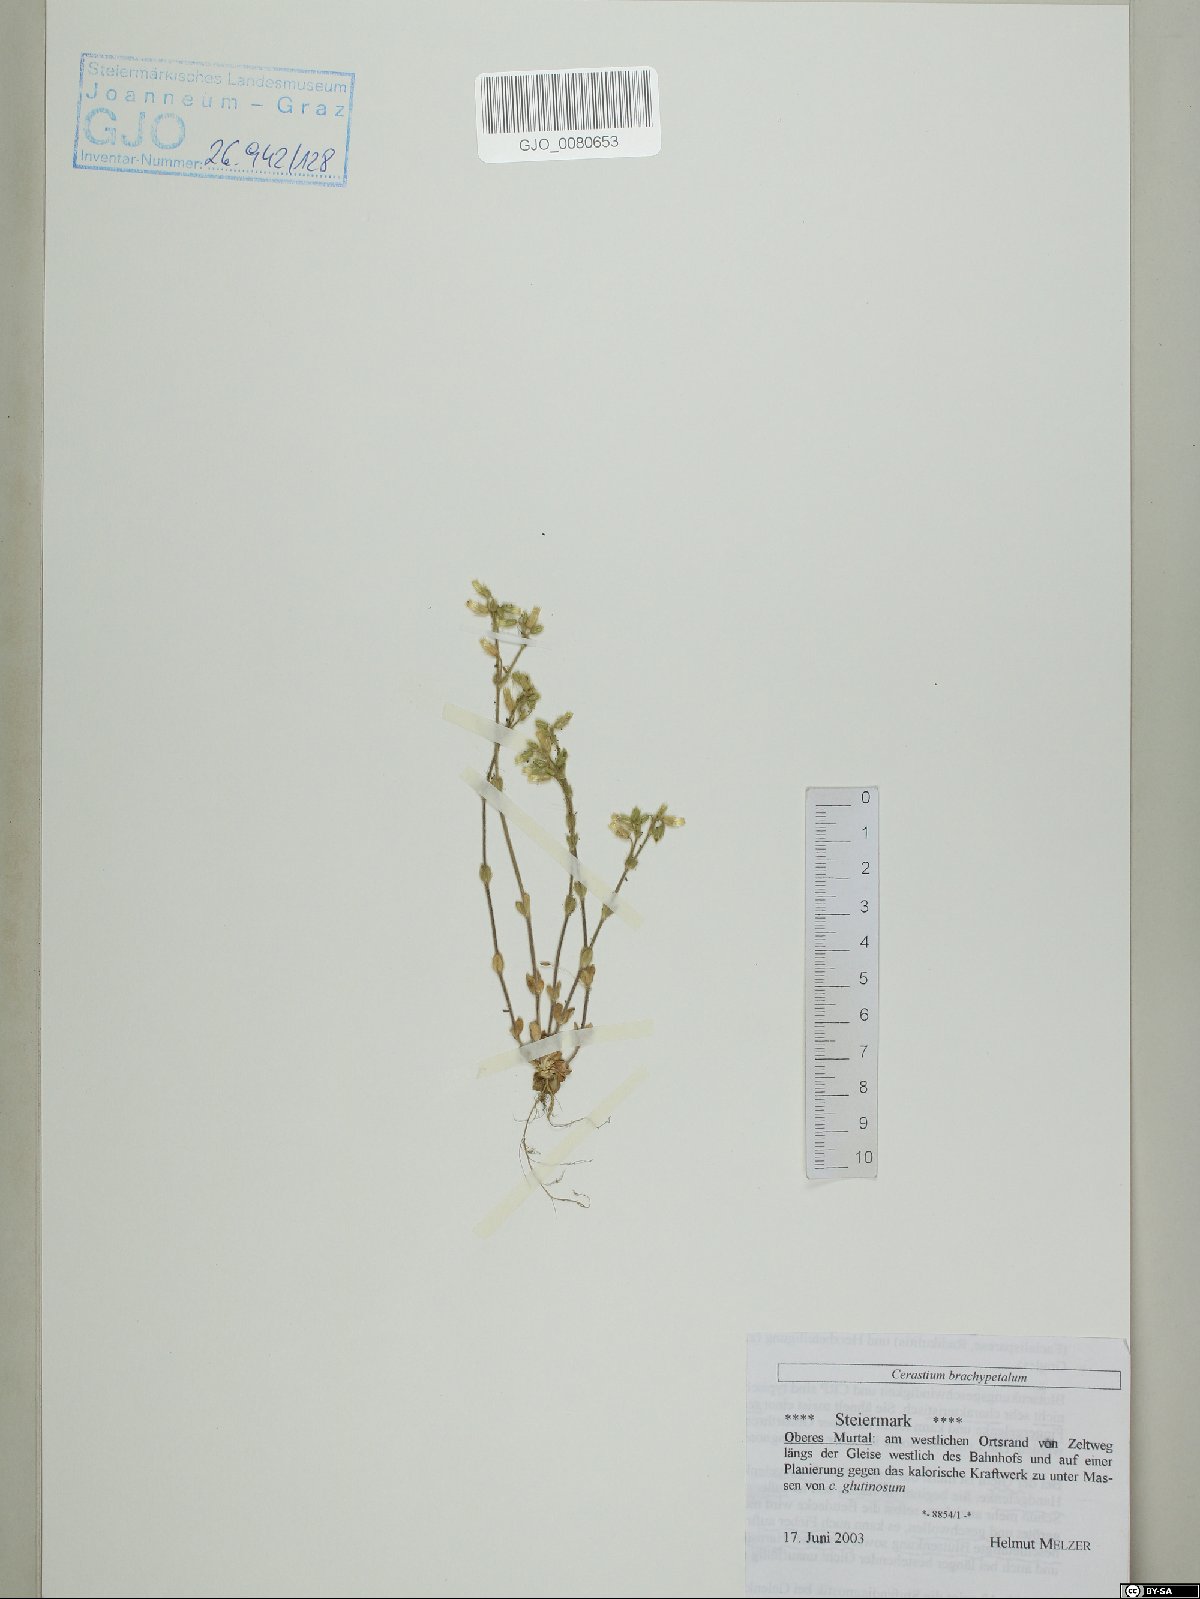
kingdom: Plantae
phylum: Tracheophyta
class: Magnoliopsida
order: Caryophyllales
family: Caryophyllaceae
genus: Cerastium
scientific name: Cerastium brachypetalum
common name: Grey mouse-ear
